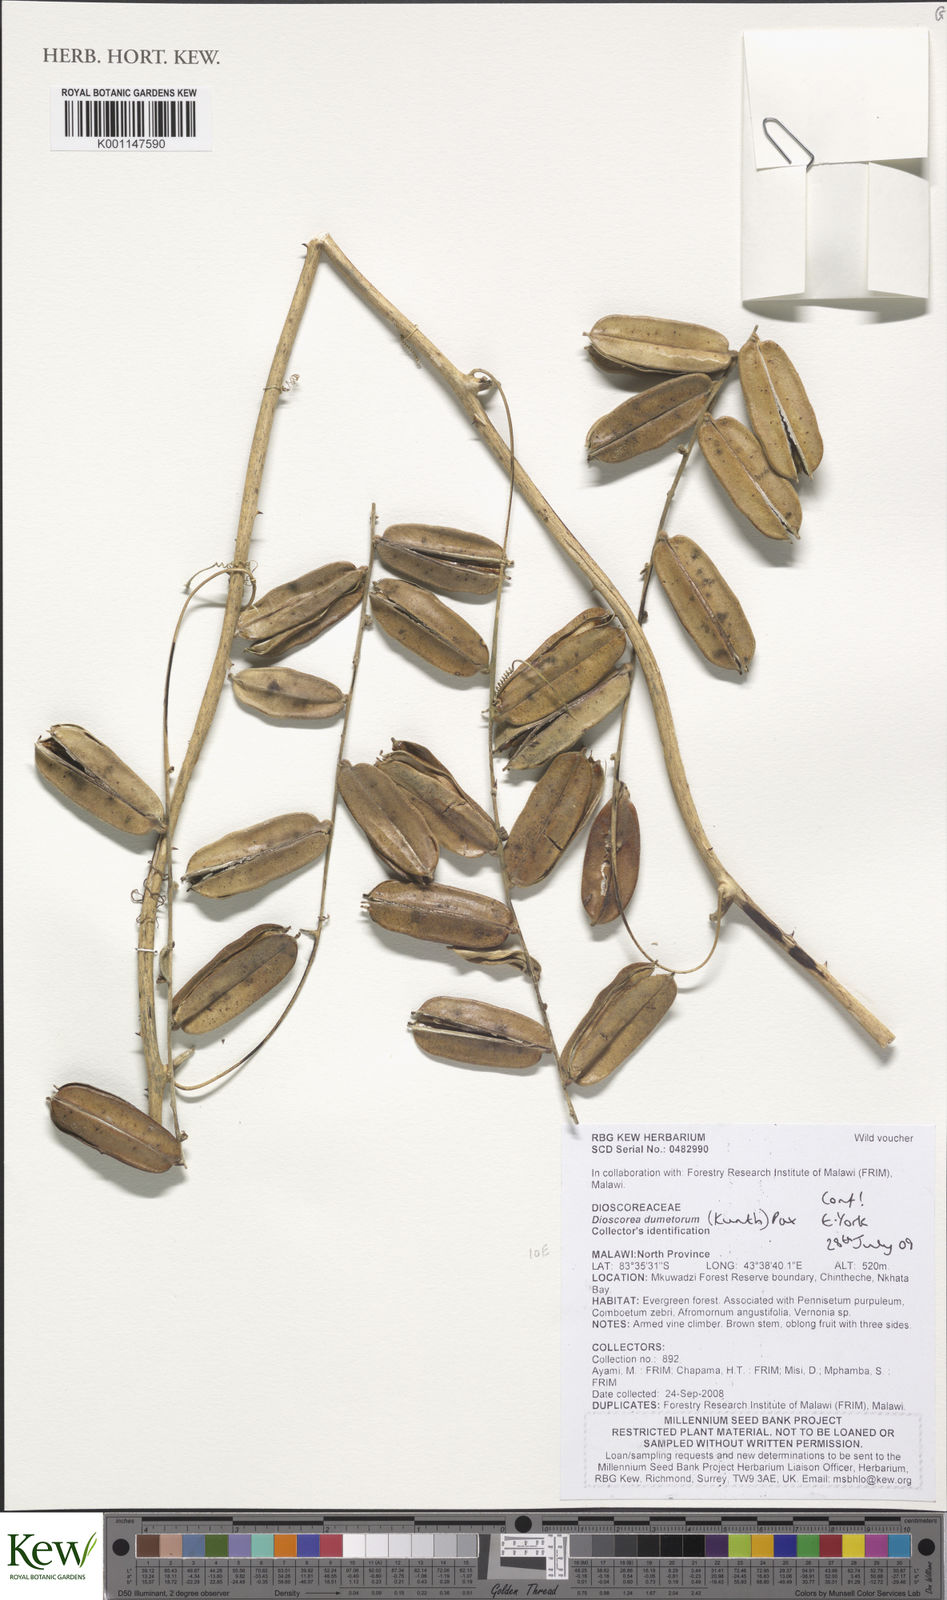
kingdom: Plantae
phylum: Tracheophyta
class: Liliopsida
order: Dioscoreales
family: Dioscoreaceae
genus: Dioscorea
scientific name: Dioscorea dumetorum
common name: African bitter yam
